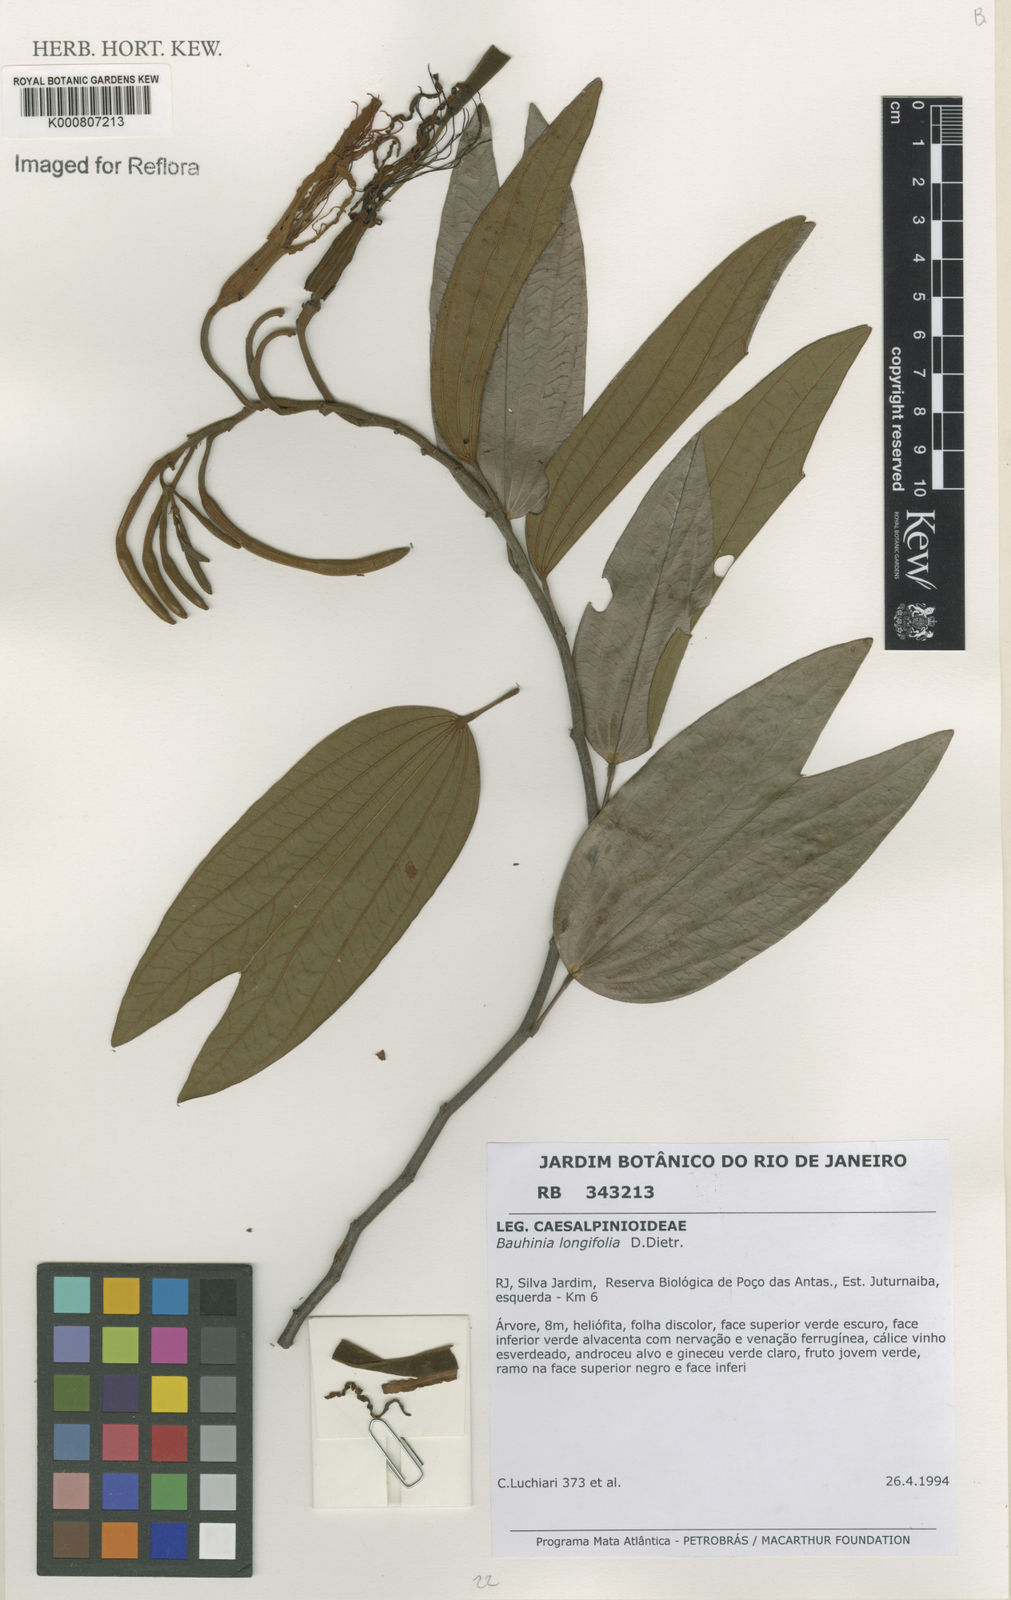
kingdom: Plantae
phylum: Tracheophyta
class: Magnoliopsida
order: Fabales
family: Fabaceae
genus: Bauhinia
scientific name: Bauhinia longifolia
